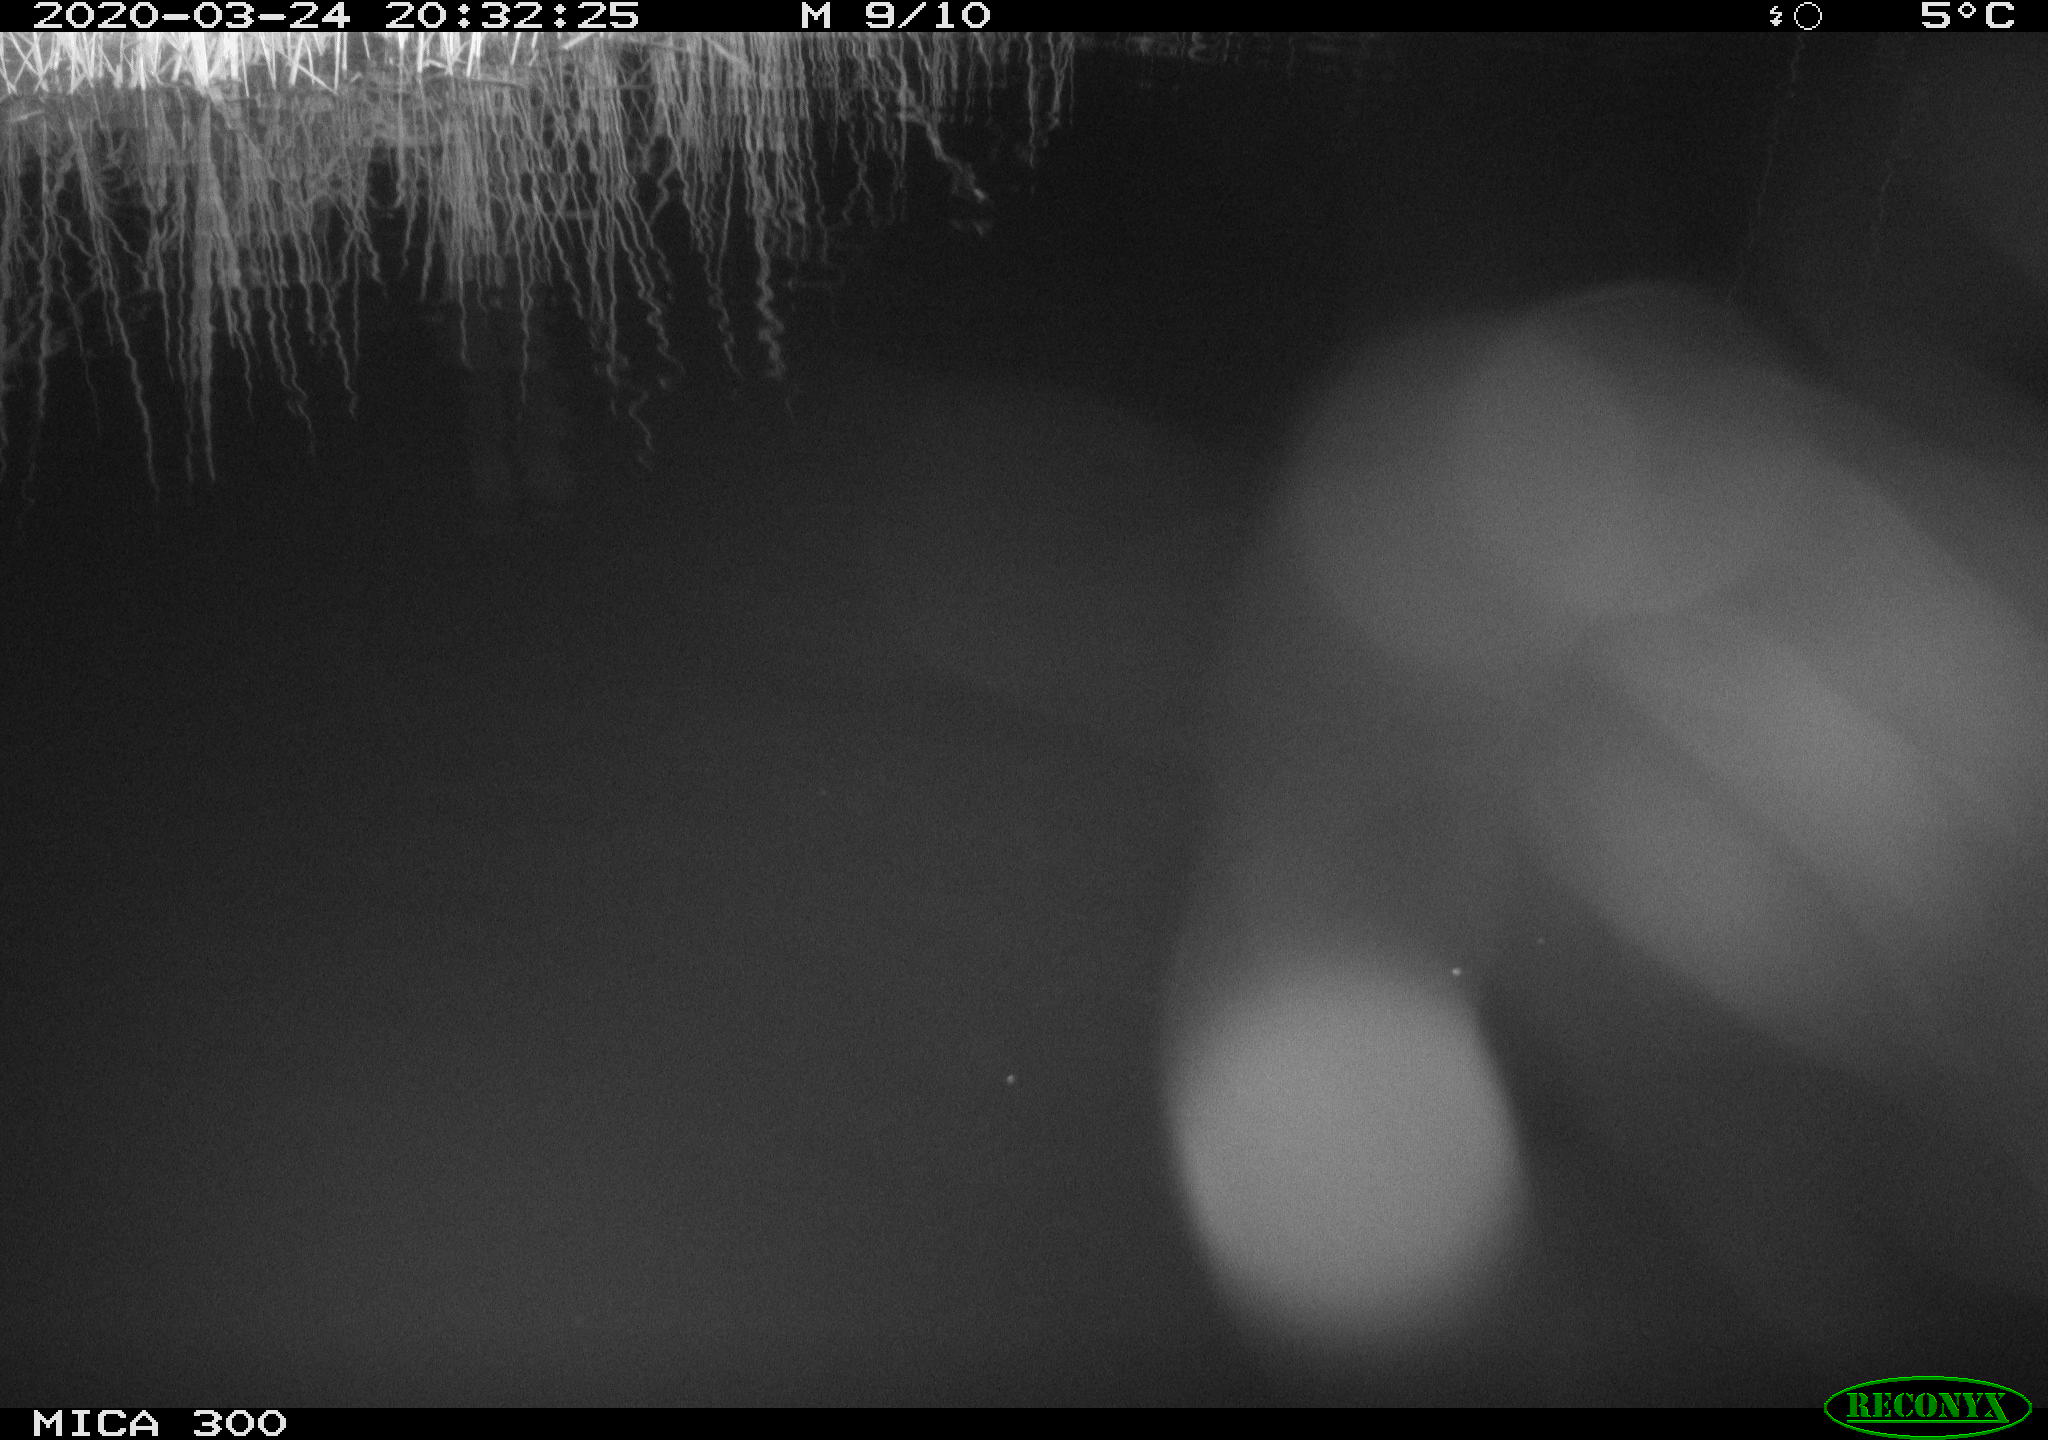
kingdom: Animalia
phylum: Chordata
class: Mammalia
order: Rodentia
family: Muridae
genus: Rattus
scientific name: Rattus norvegicus
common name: Brown rat
